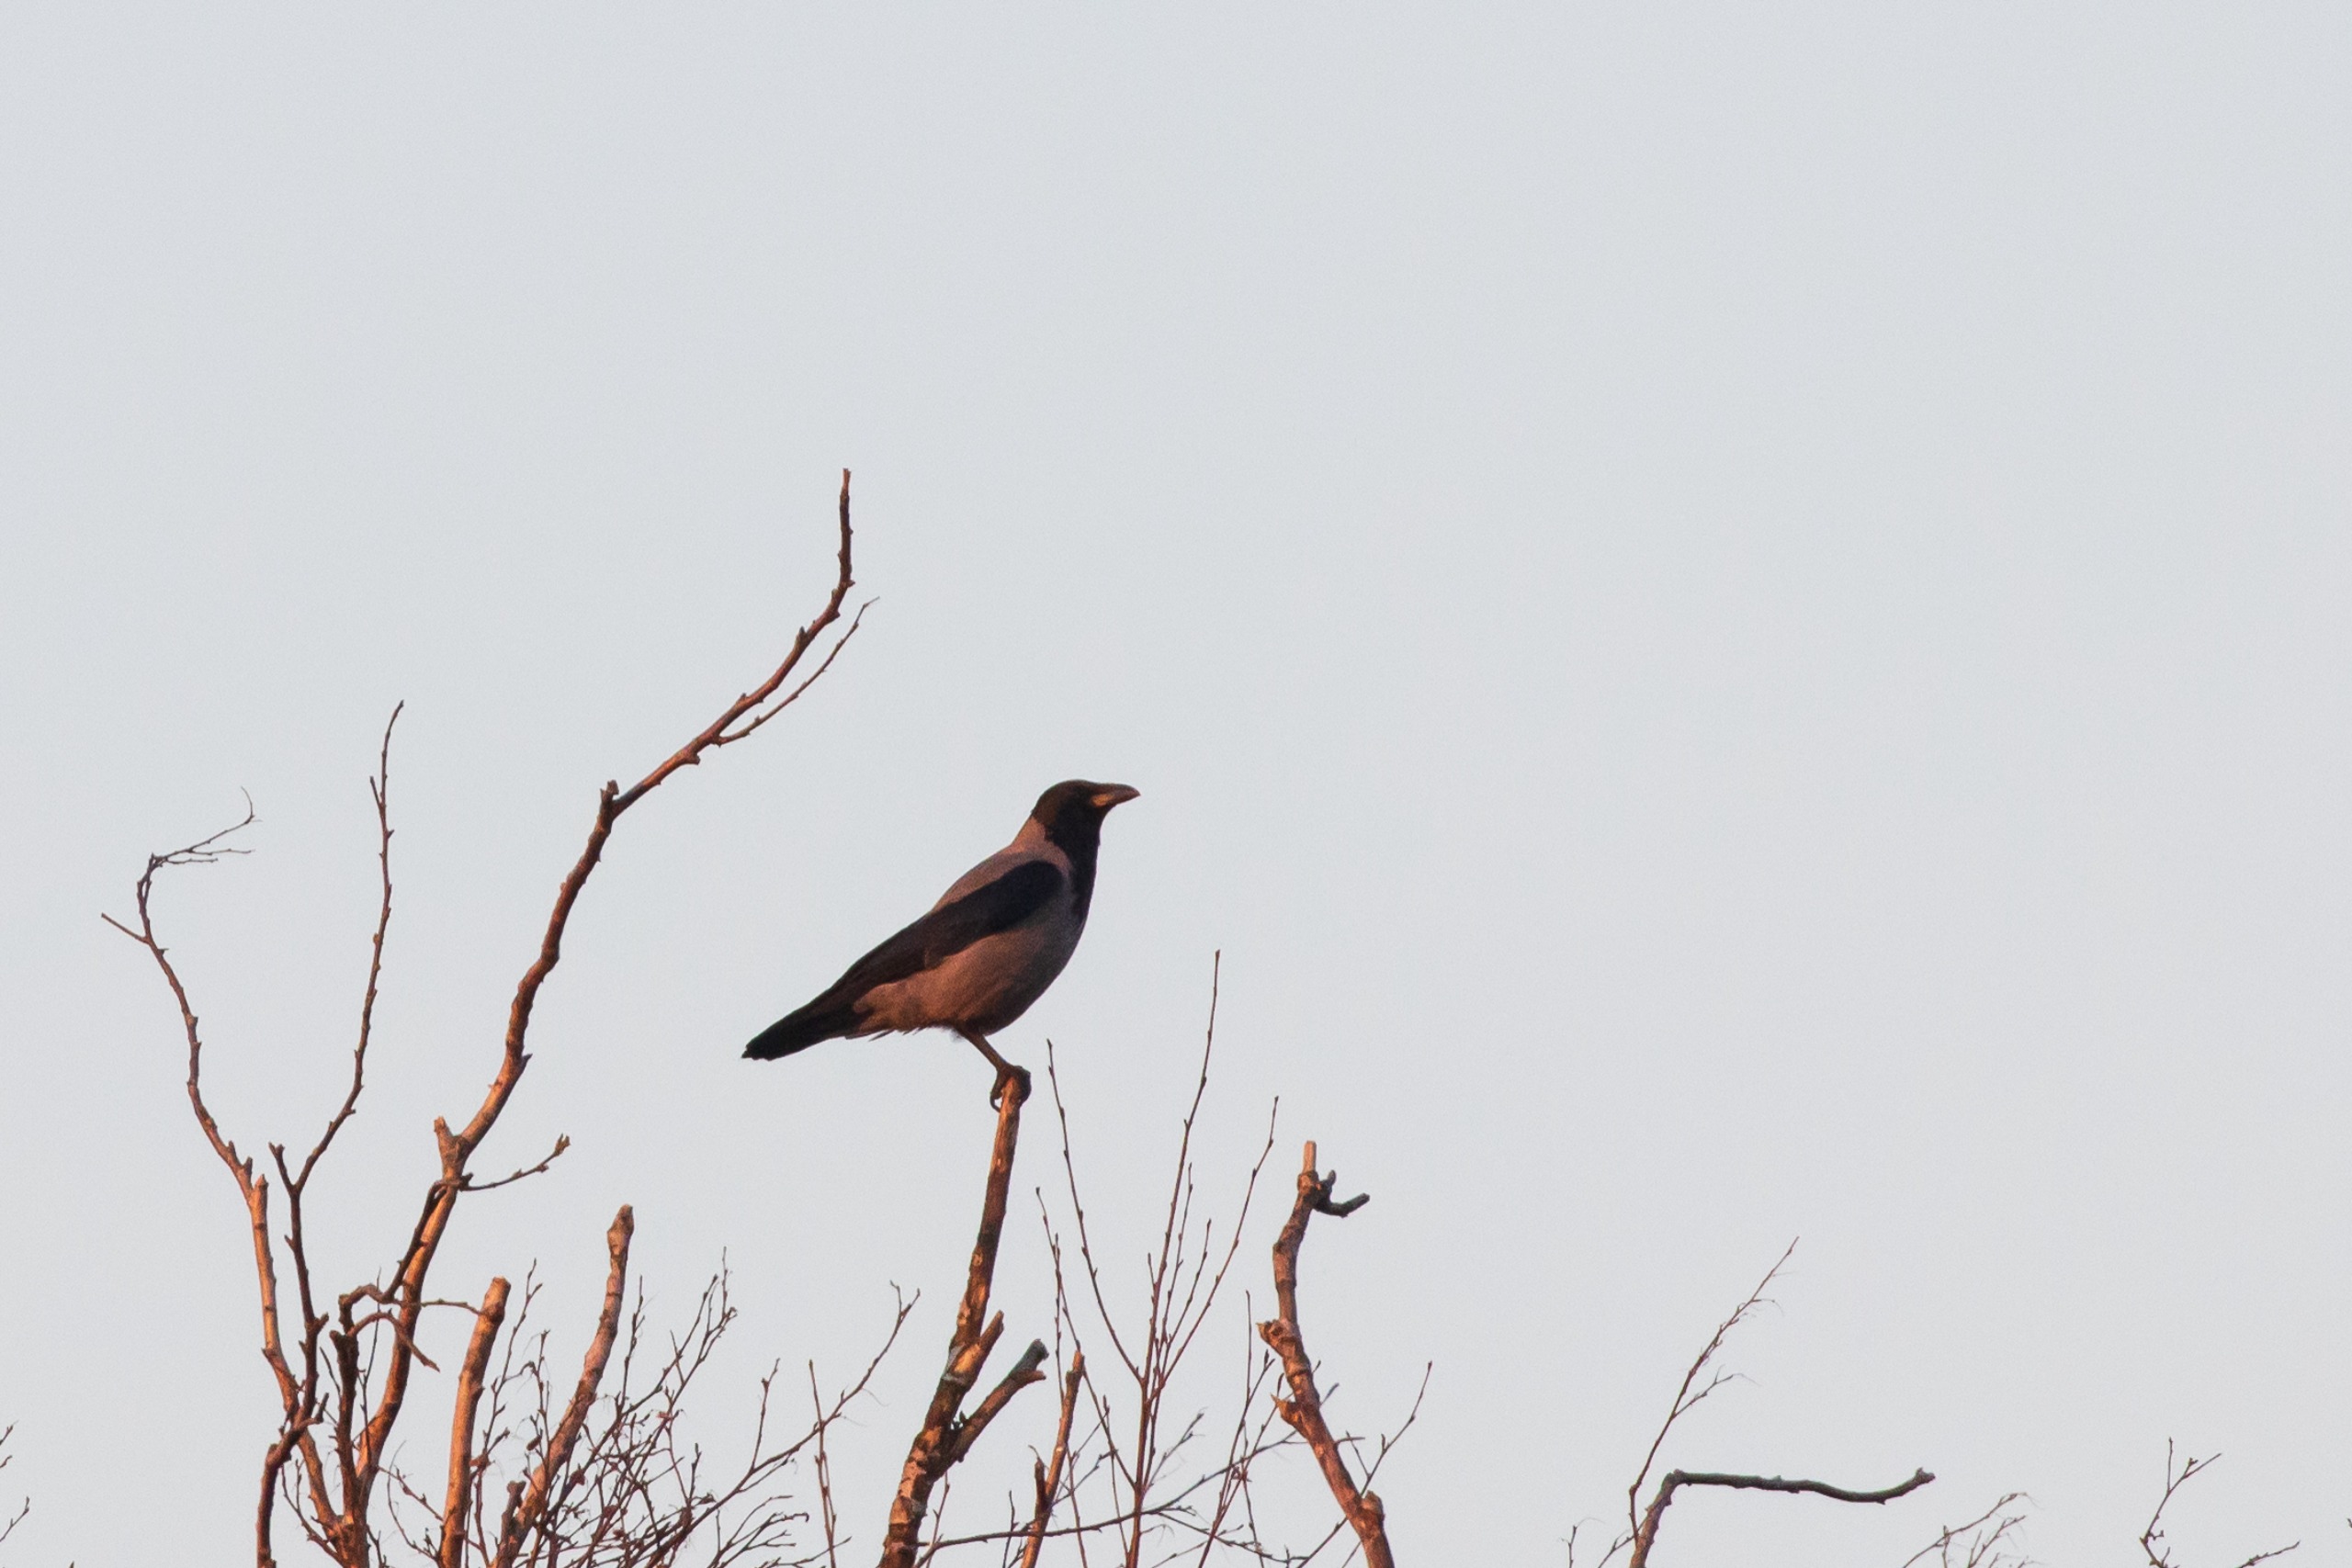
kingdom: Animalia
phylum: Chordata
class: Aves
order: Passeriformes
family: Corvidae
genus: Corvus
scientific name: Corvus cornix
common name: Gråkrage
